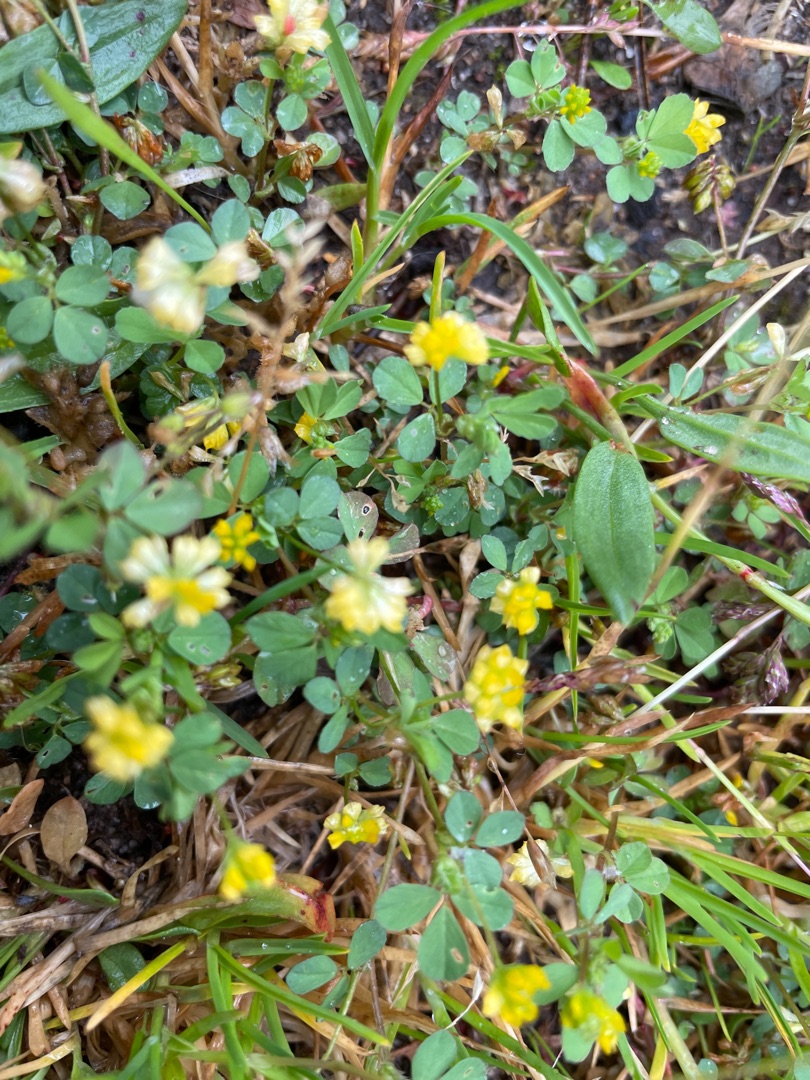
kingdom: Plantae
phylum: Tracheophyta
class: Magnoliopsida
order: Fabales
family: Fabaceae
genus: Trifolium
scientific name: Trifolium dubium
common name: Fin kløver
